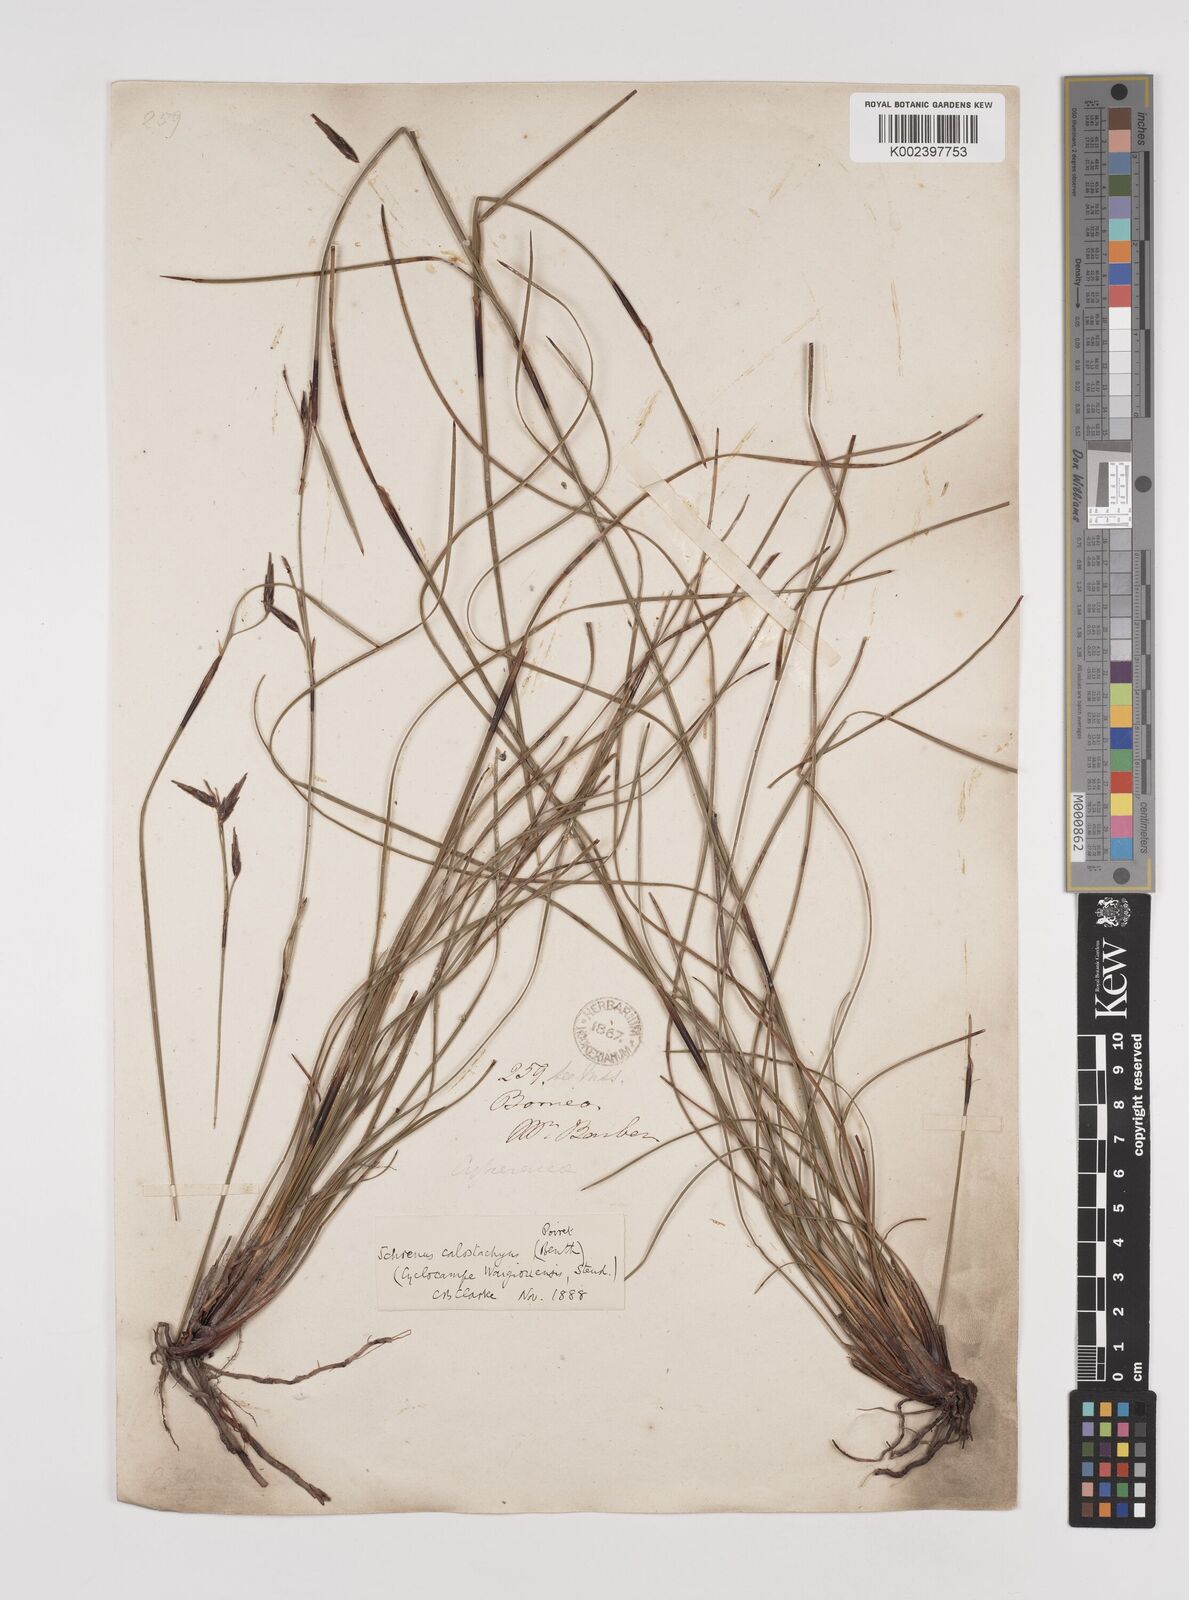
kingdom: Plantae
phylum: Tracheophyta
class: Liliopsida
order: Poales
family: Cyperaceae
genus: Schoenus
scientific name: Schoenus calostachyus
